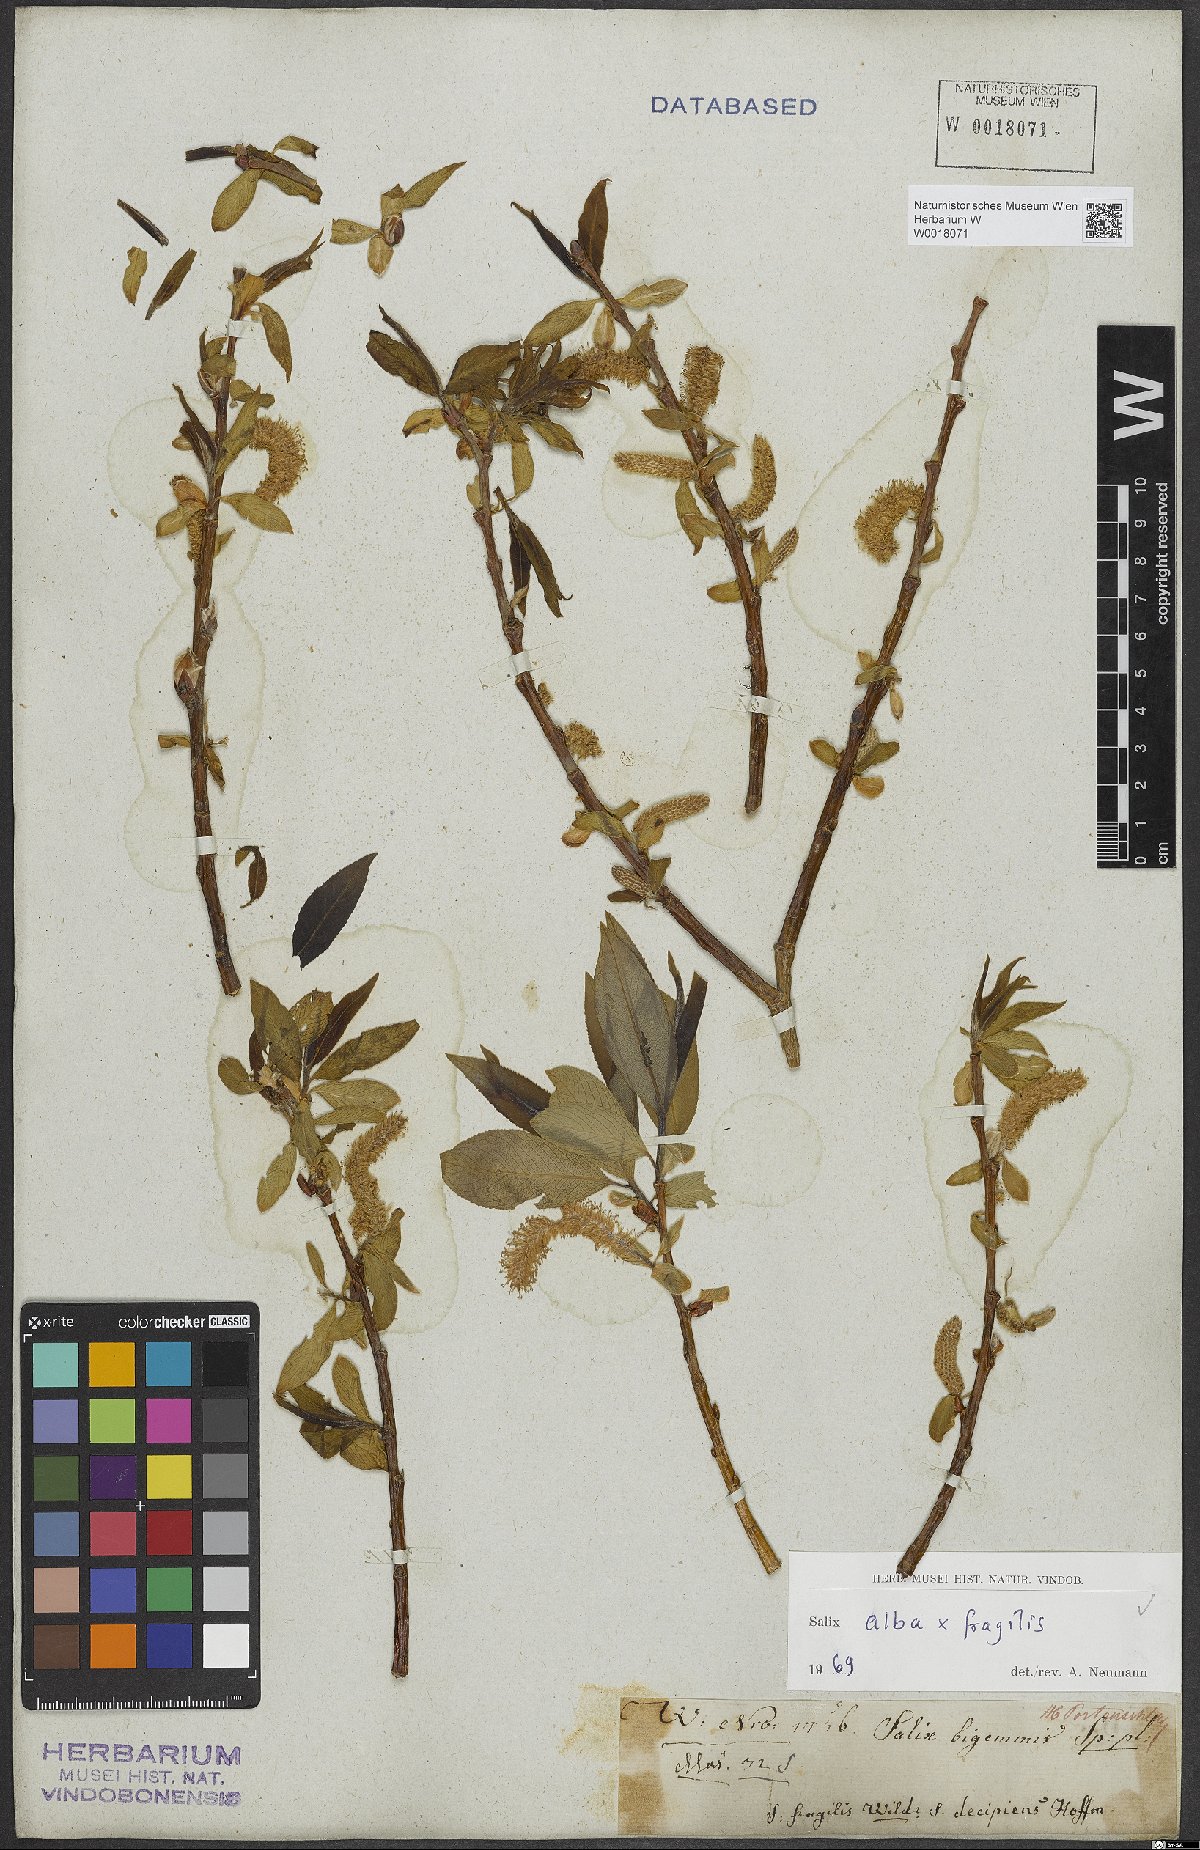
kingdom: Plantae
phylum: Tracheophyta
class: Magnoliopsida
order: Malpighiales
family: Salicaceae
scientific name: Salicaceae
